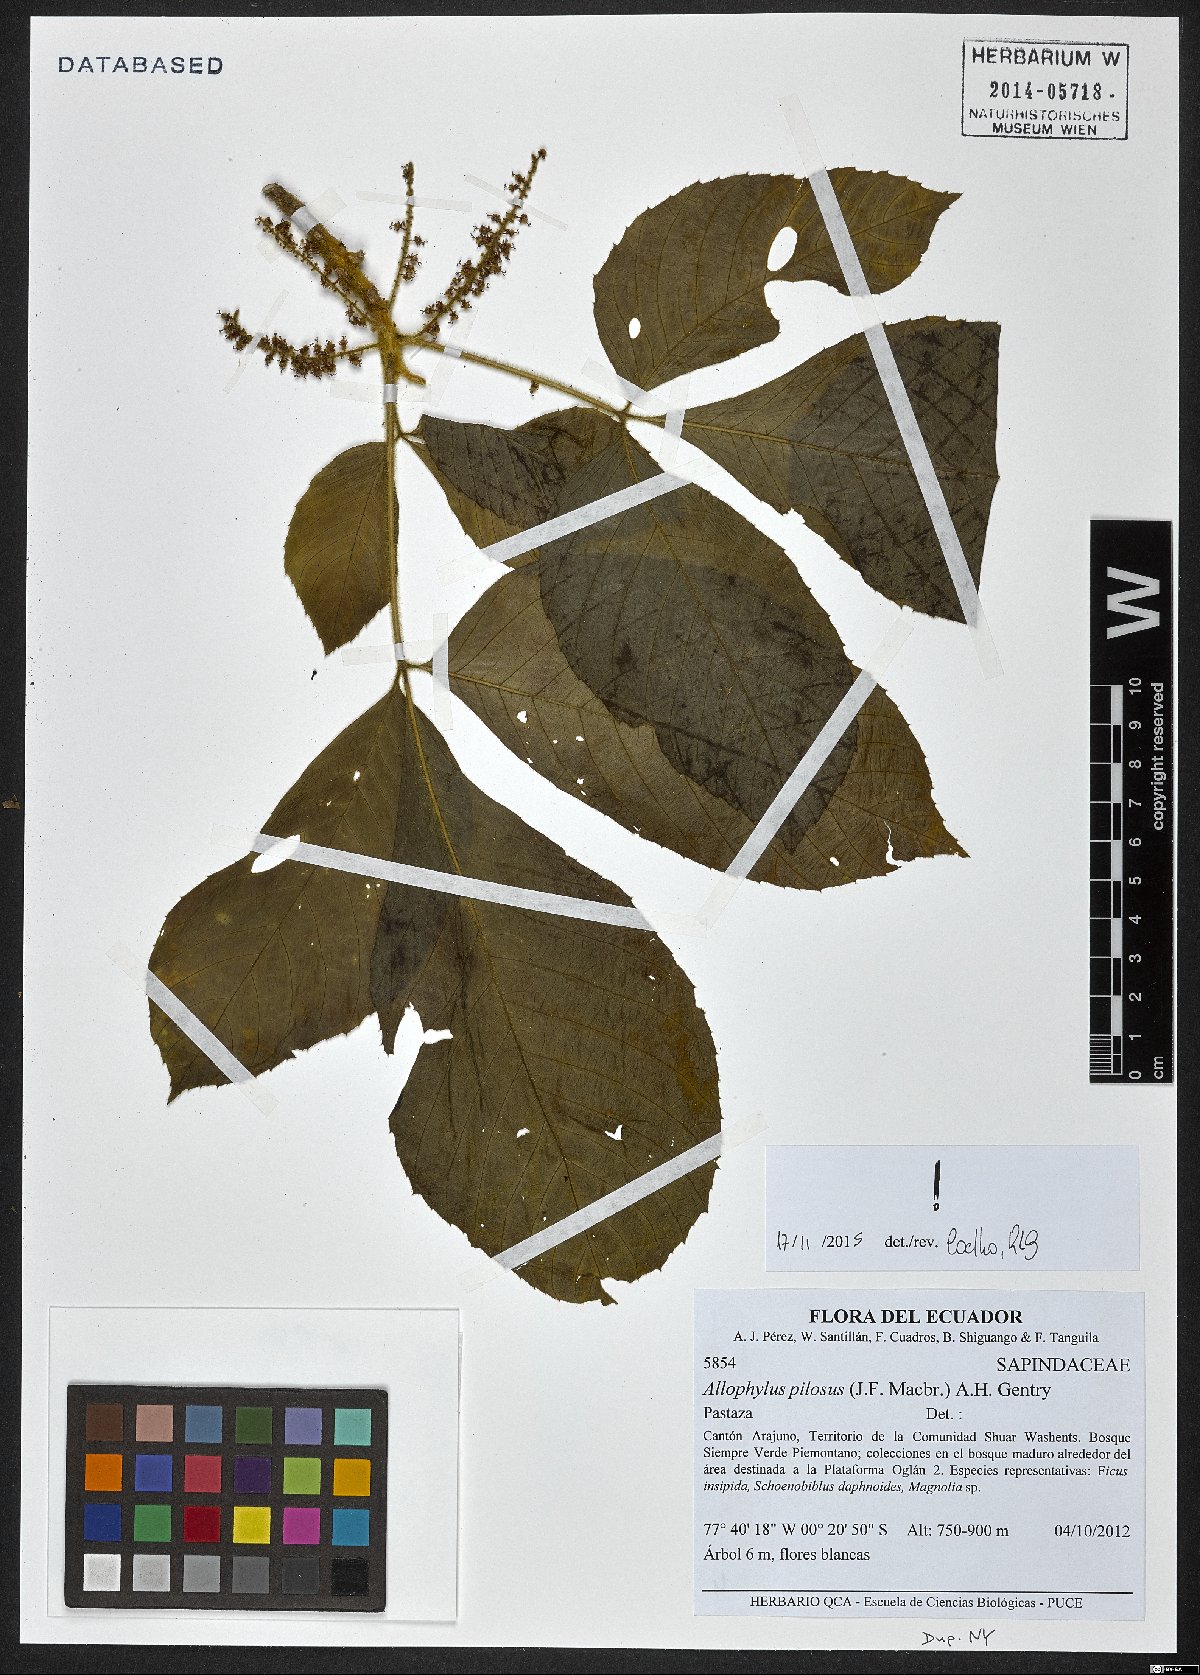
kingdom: Plantae
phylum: Tracheophyta
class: Magnoliopsida
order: Sapindales
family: Sapindaceae
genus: Allophylus
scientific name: Allophylus pilosus
